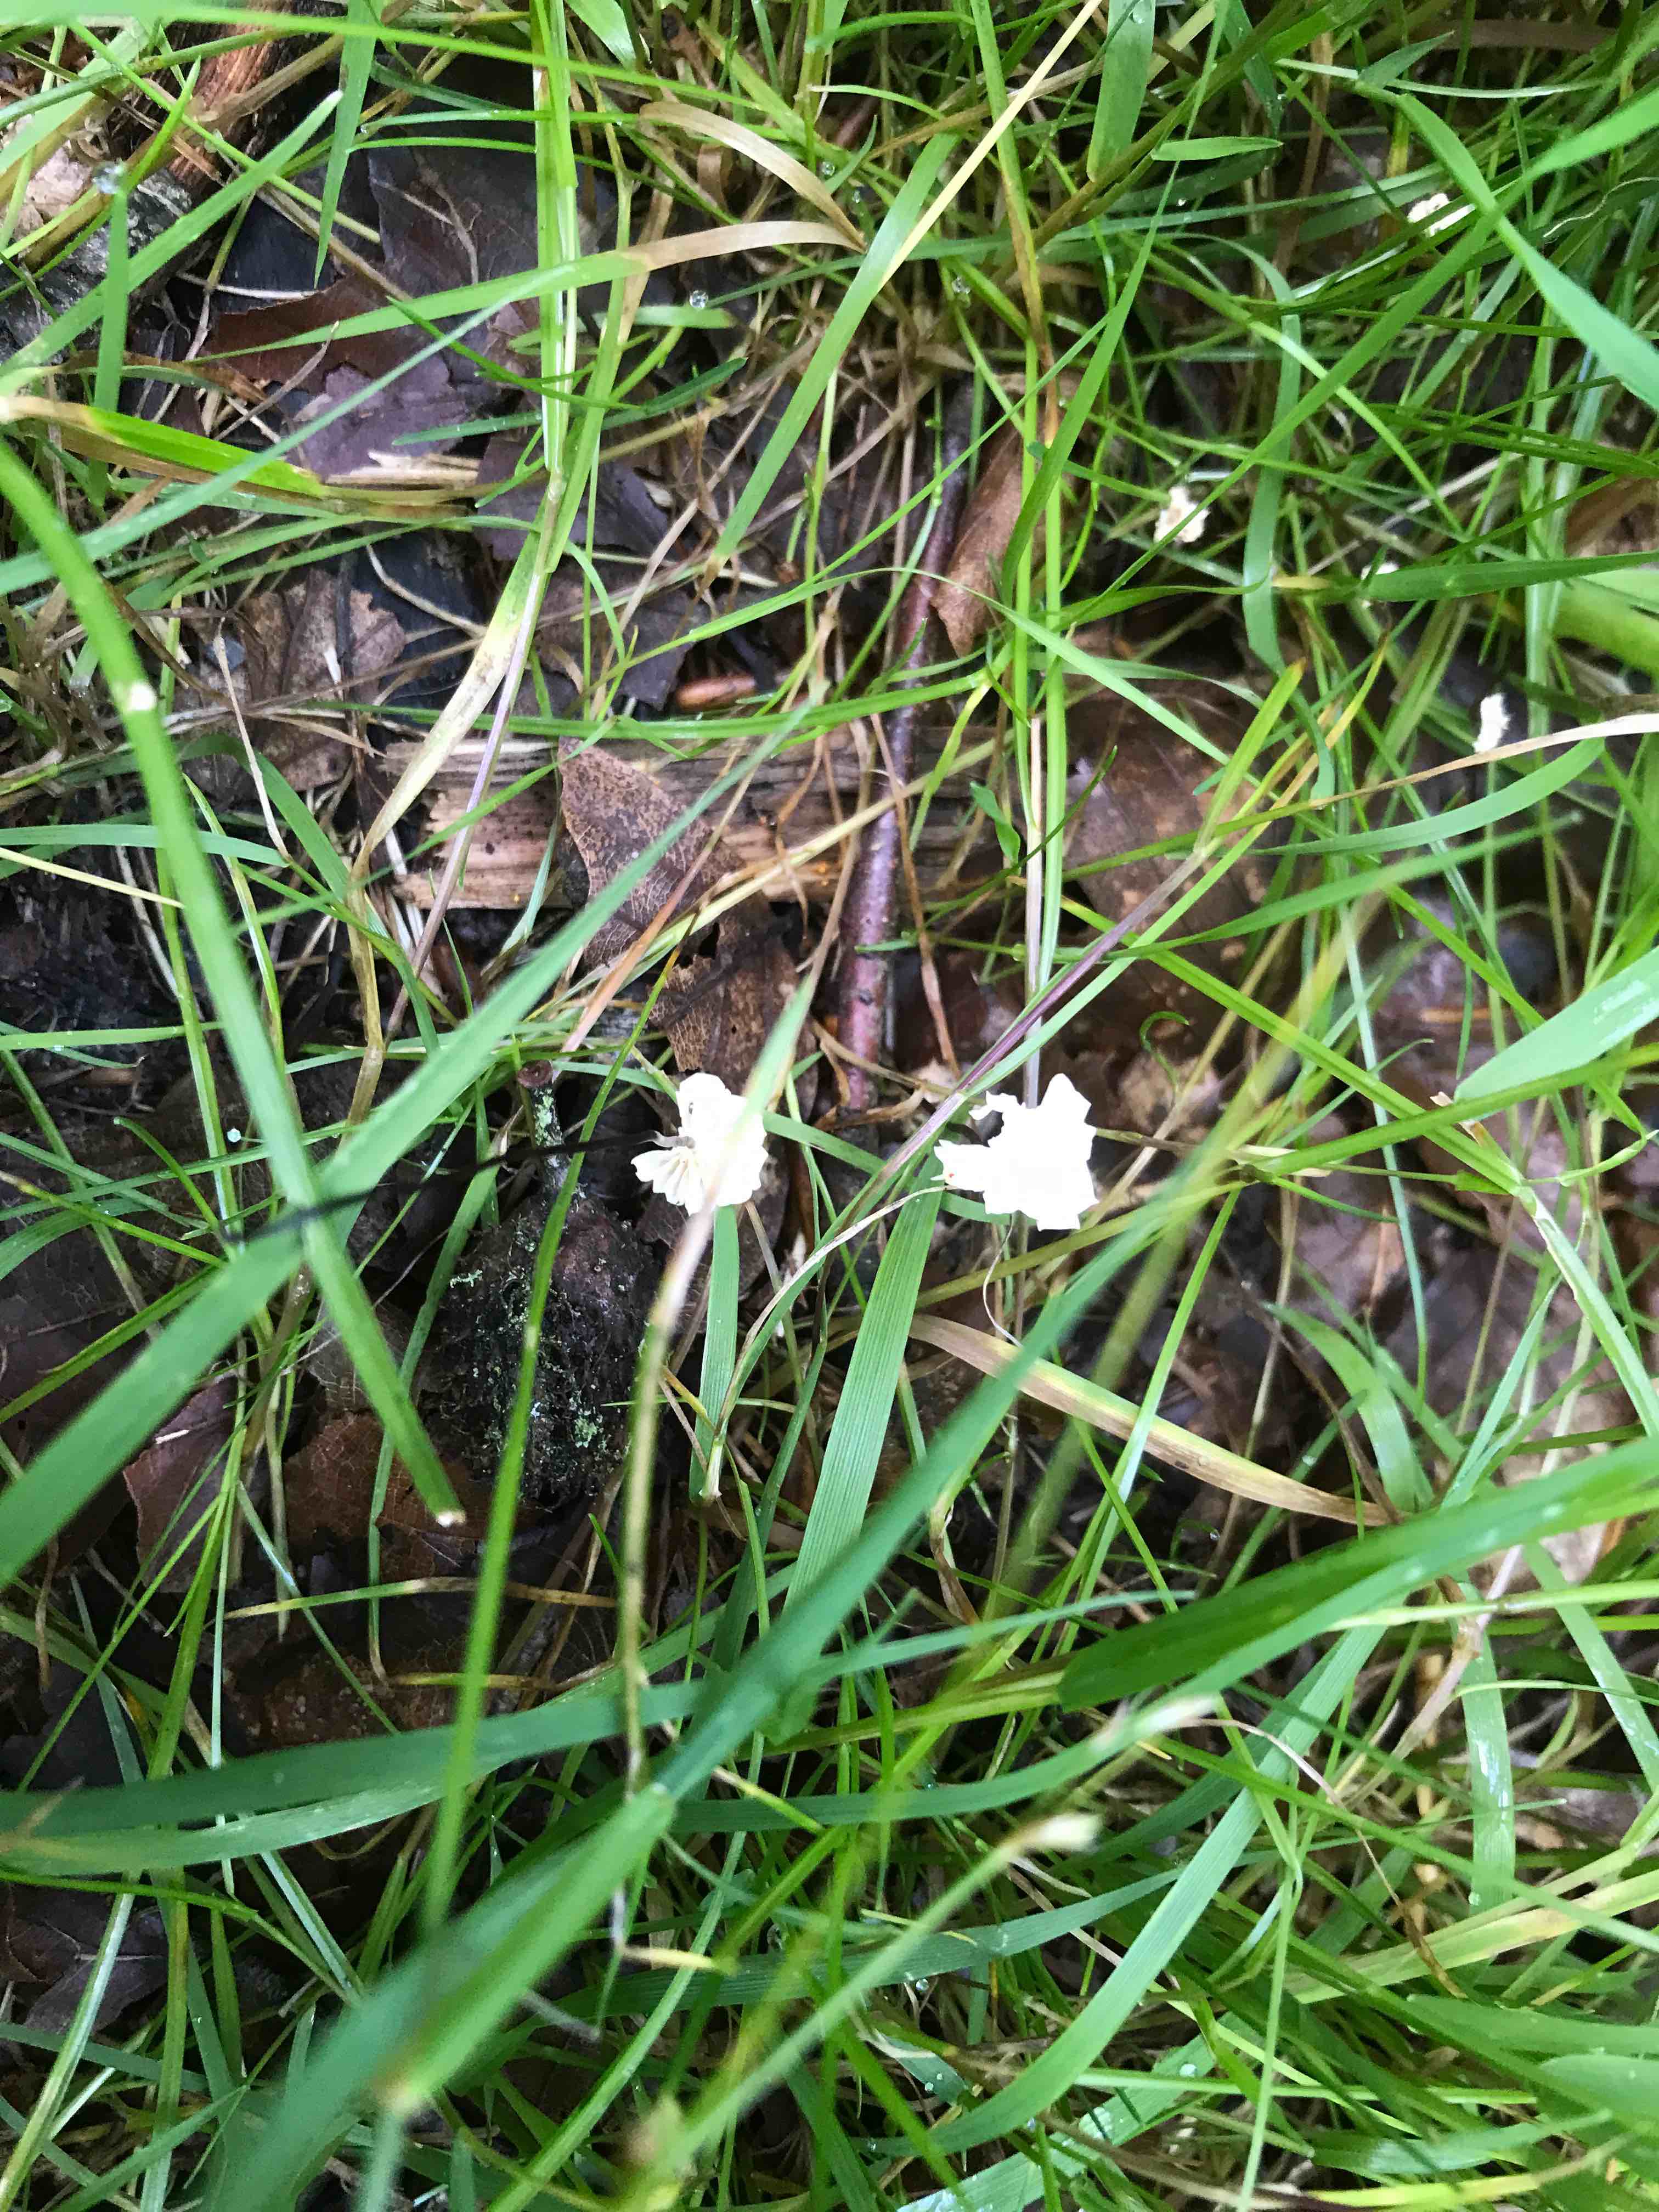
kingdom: Fungi
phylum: Basidiomycota
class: Agaricomycetes
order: Agaricales
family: Marasmiaceae
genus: Marasmius
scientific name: Marasmius rotula
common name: hjul-bruskhat
